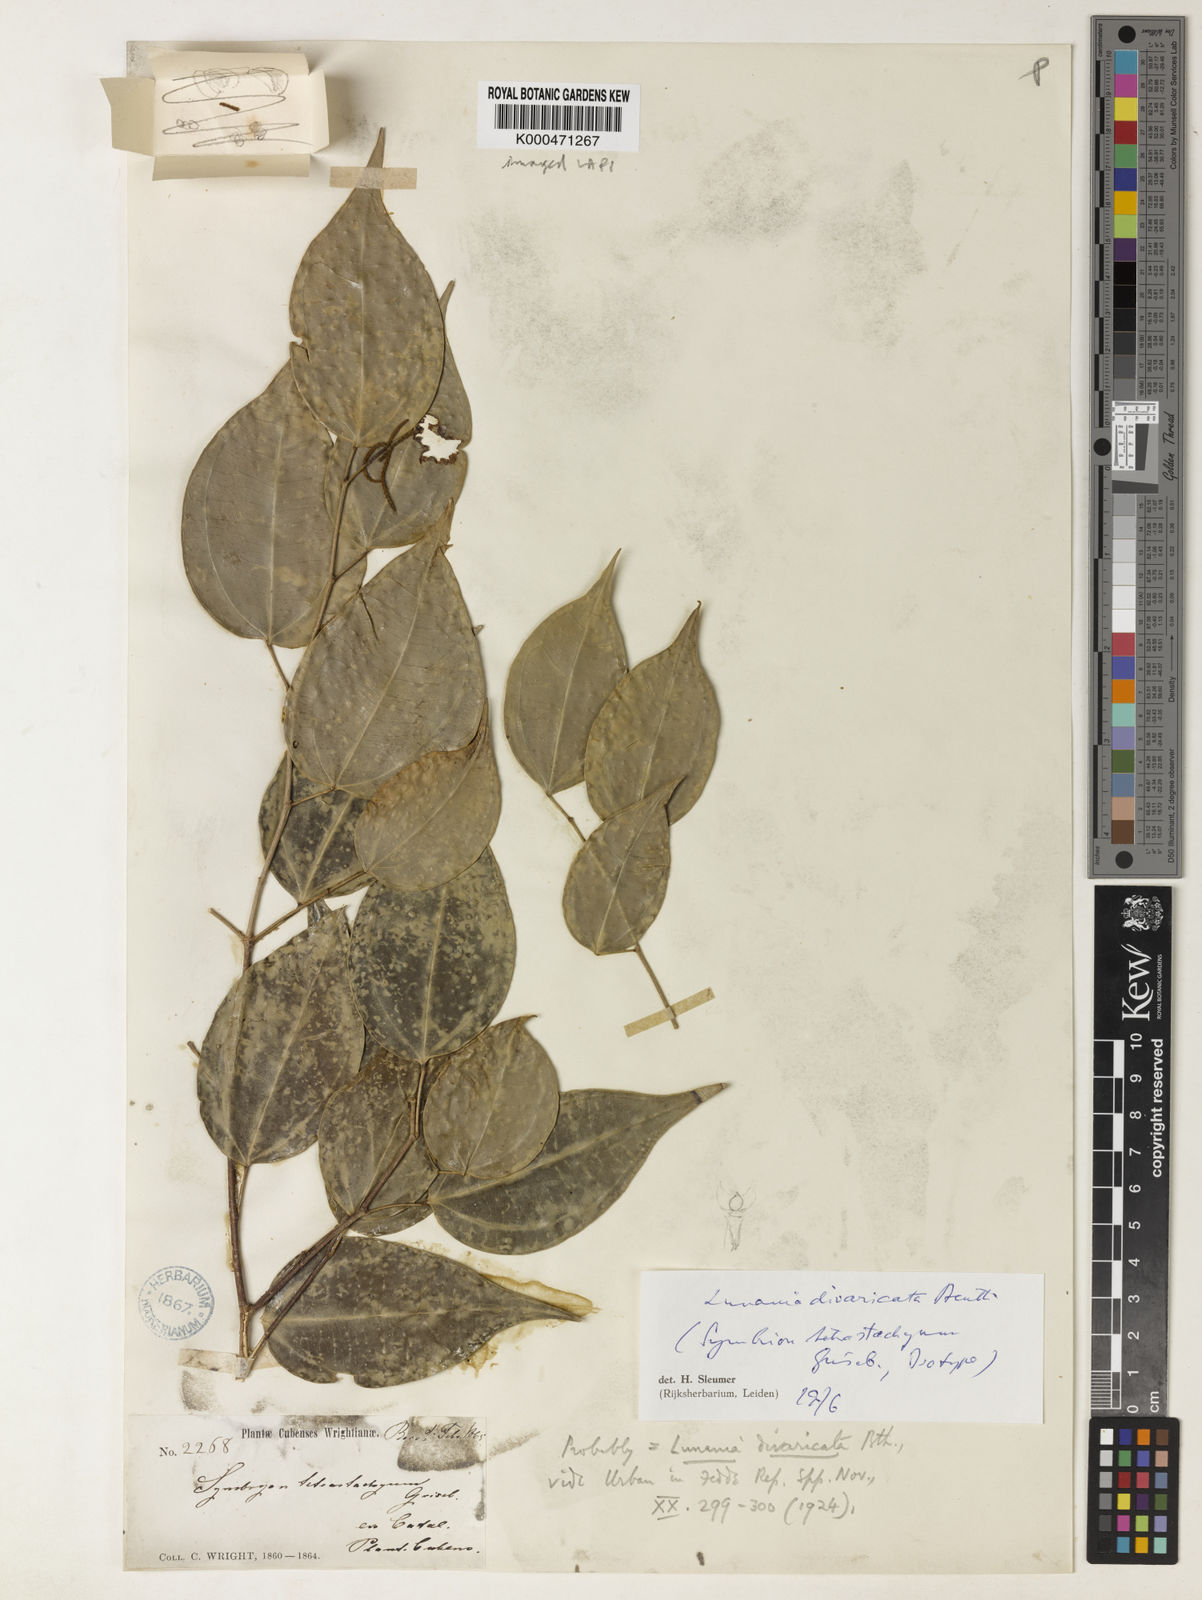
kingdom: Plantae
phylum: Tracheophyta
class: Magnoliopsida
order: Malpighiales
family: Salicaceae
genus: Lunania
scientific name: Lunania divaricata
